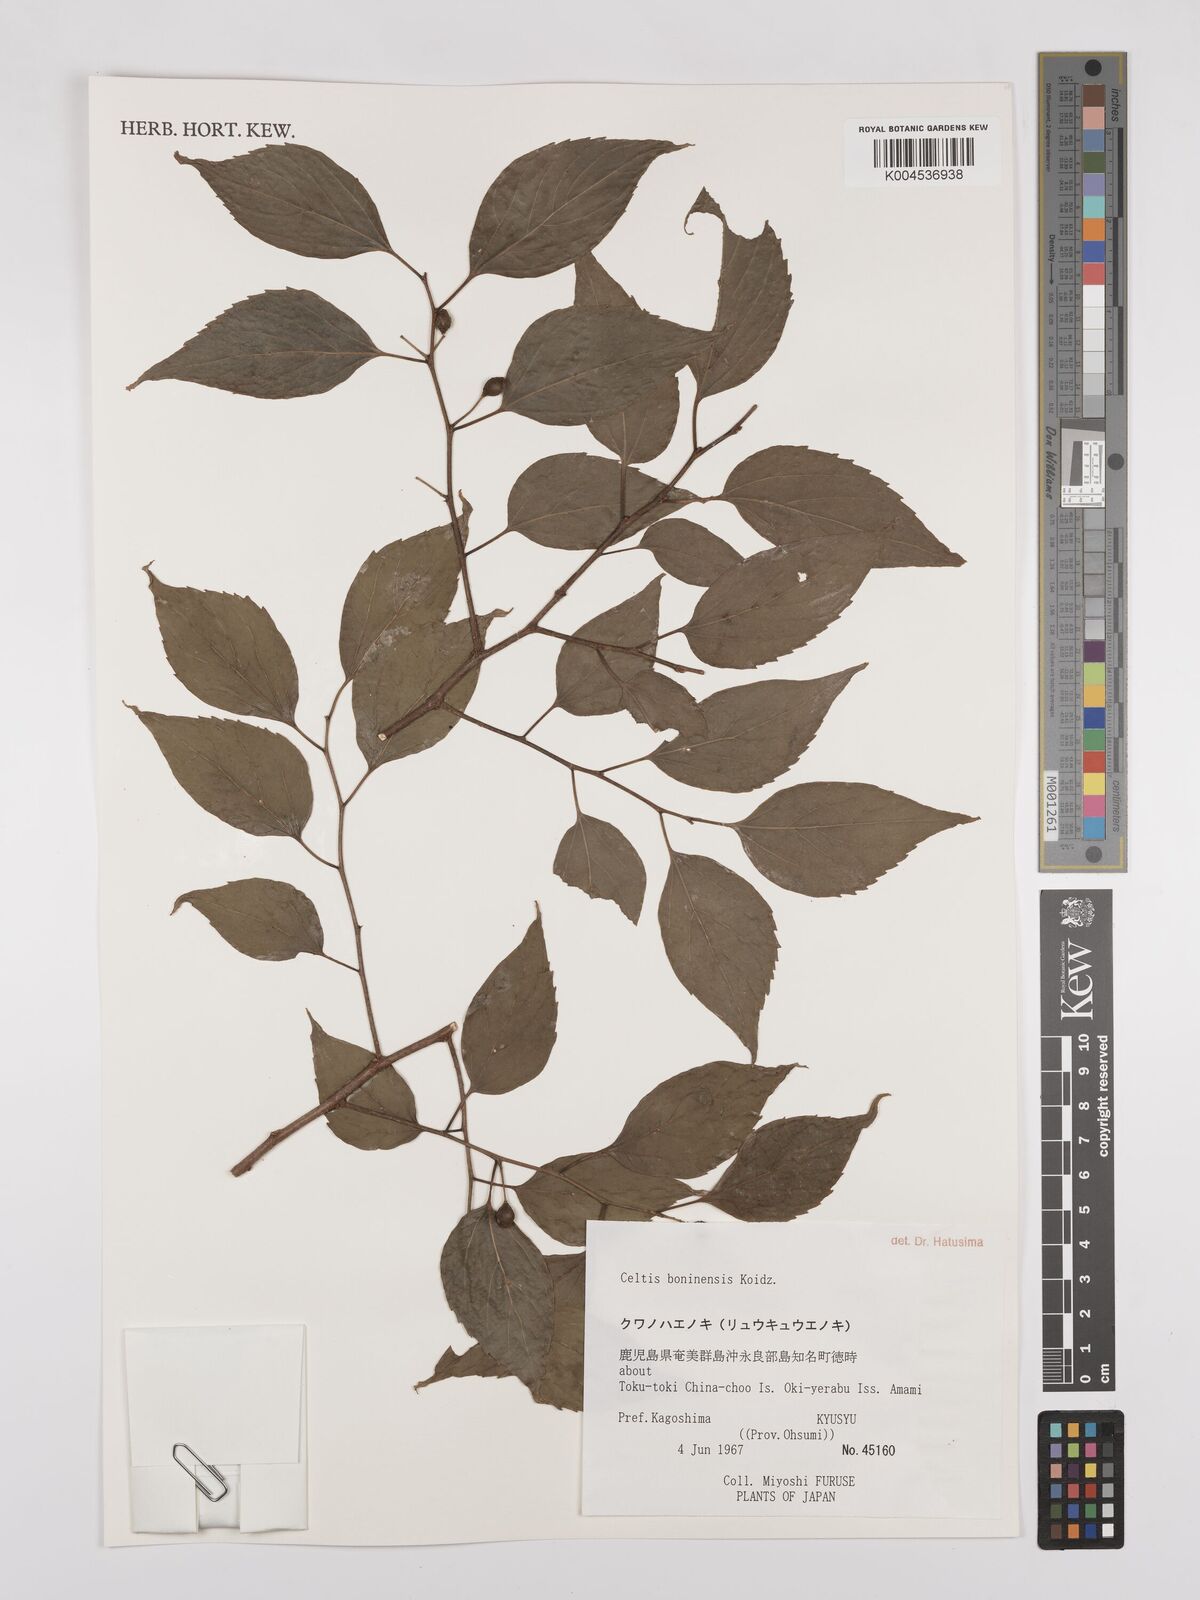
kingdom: Plantae
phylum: Tracheophyta
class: Magnoliopsida
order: Rosales
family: Cannabaceae
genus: Celtis
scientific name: Celtis boninensis
